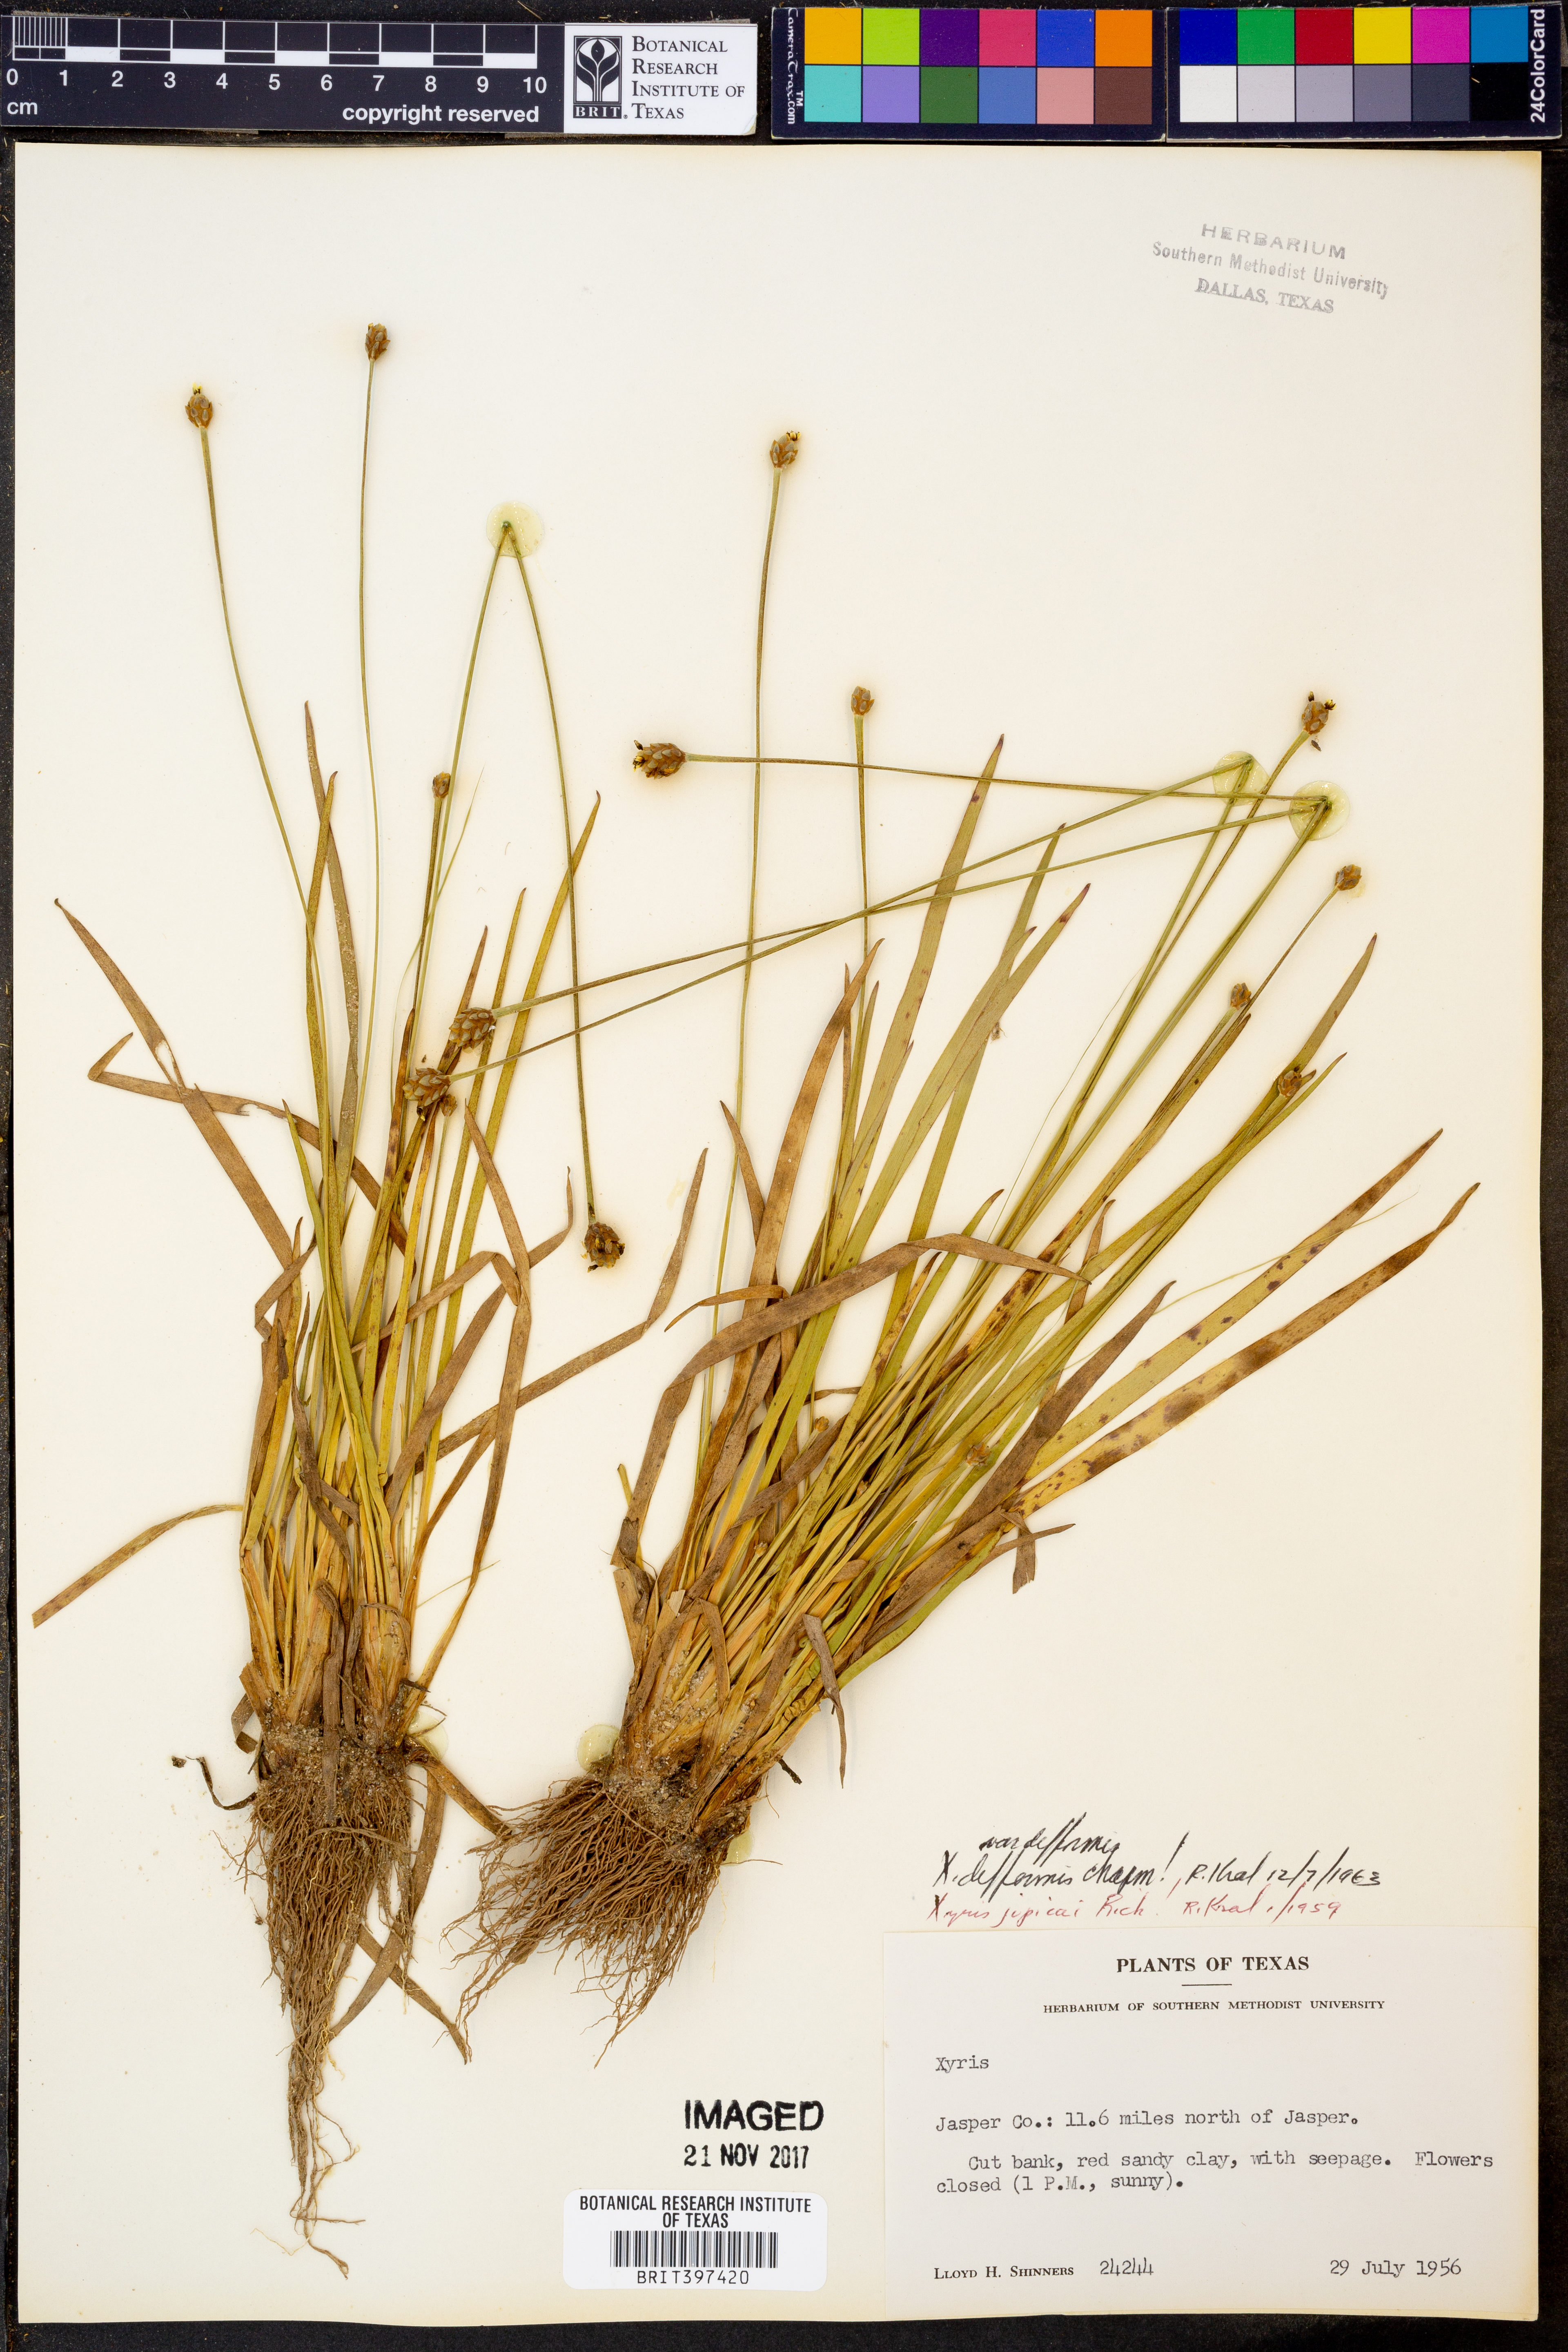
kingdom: Plantae
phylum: Tracheophyta
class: Liliopsida
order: Poales
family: Xyridaceae
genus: Xyris
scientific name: Xyris
